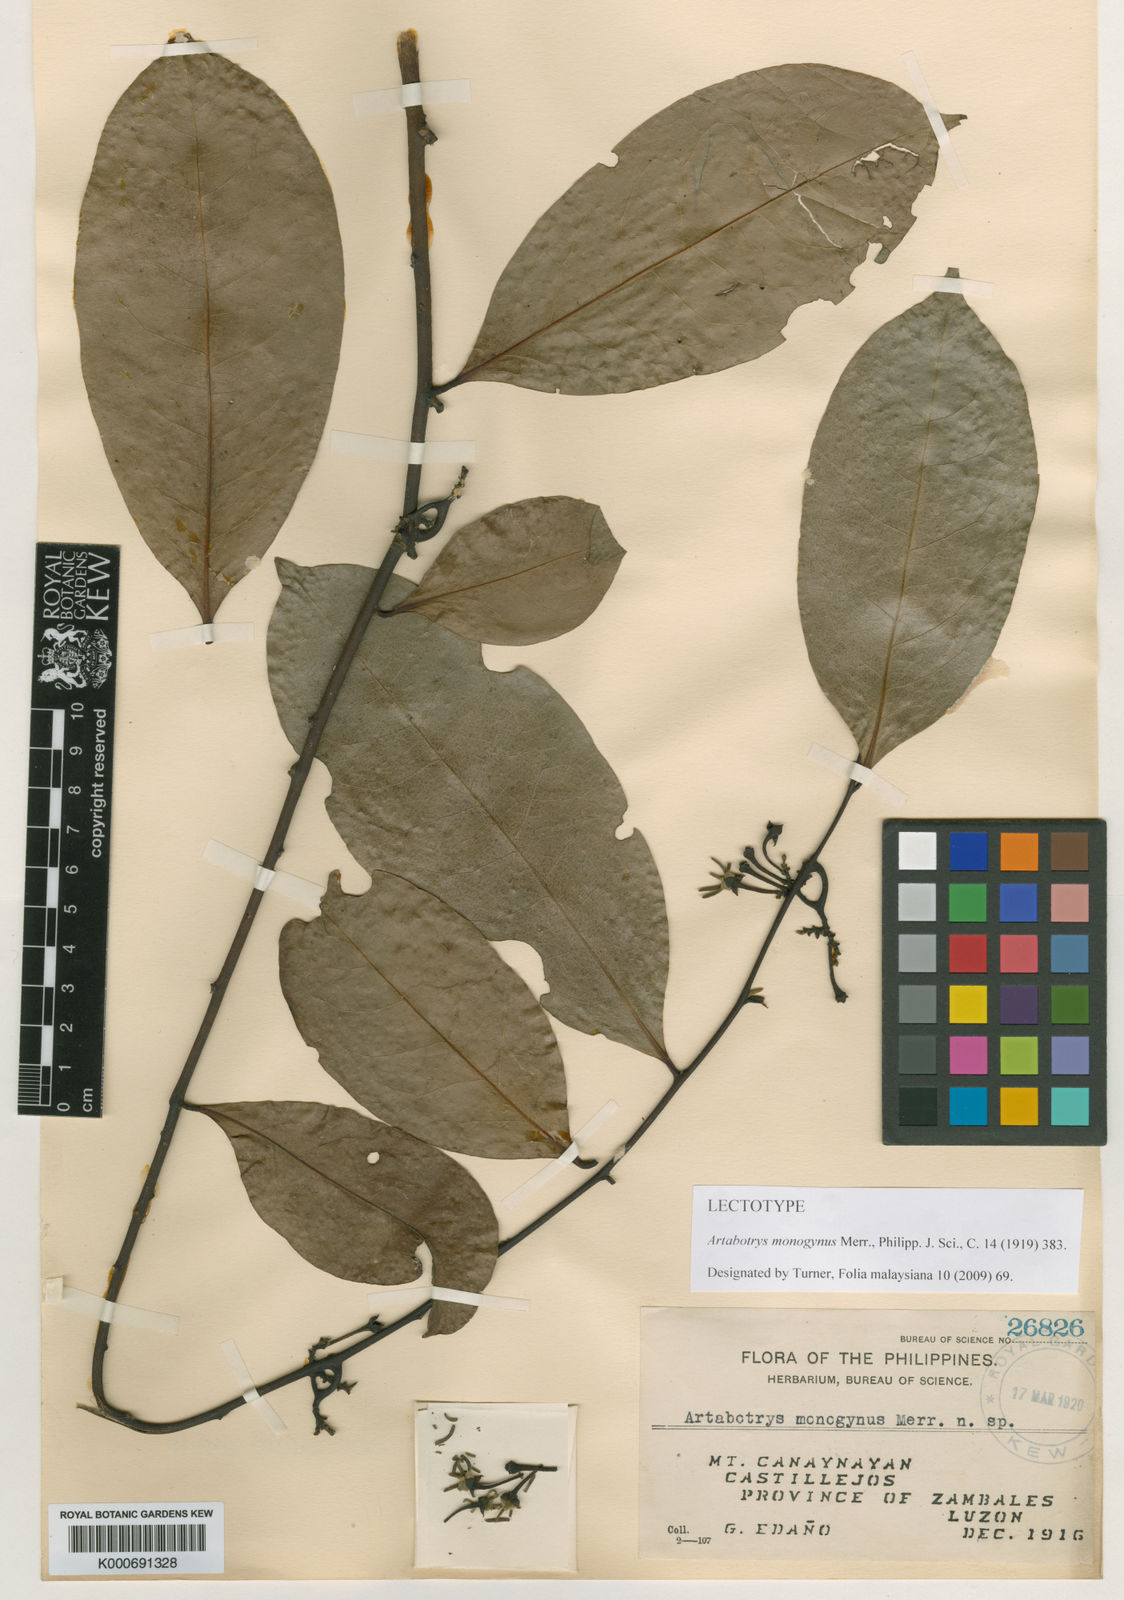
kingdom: Plantae
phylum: Tracheophyta
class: Magnoliopsida
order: Magnoliales
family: Annonaceae
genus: Artabotrys
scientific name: Artabotrys suaveolens
